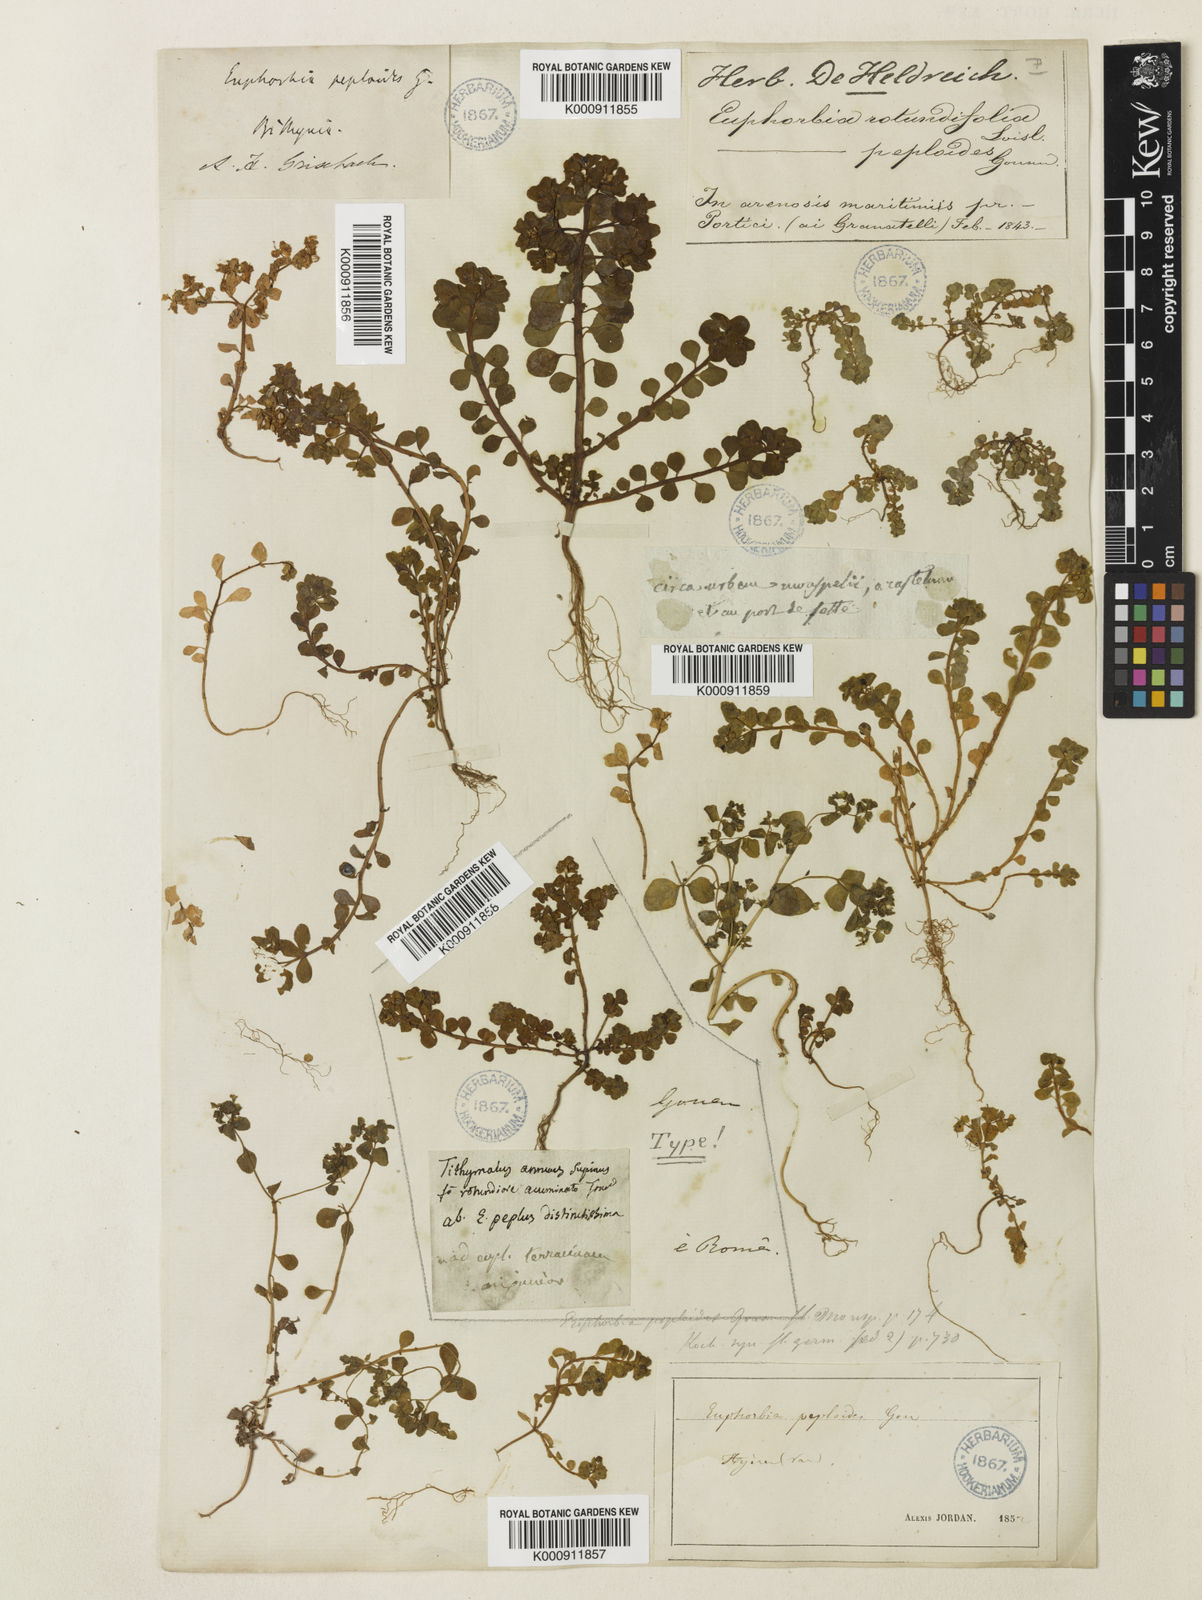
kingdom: Plantae
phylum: Tracheophyta
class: Magnoliopsida
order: Malpighiales
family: Euphorbiaceae
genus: Euphorbia
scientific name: Euphorbia
